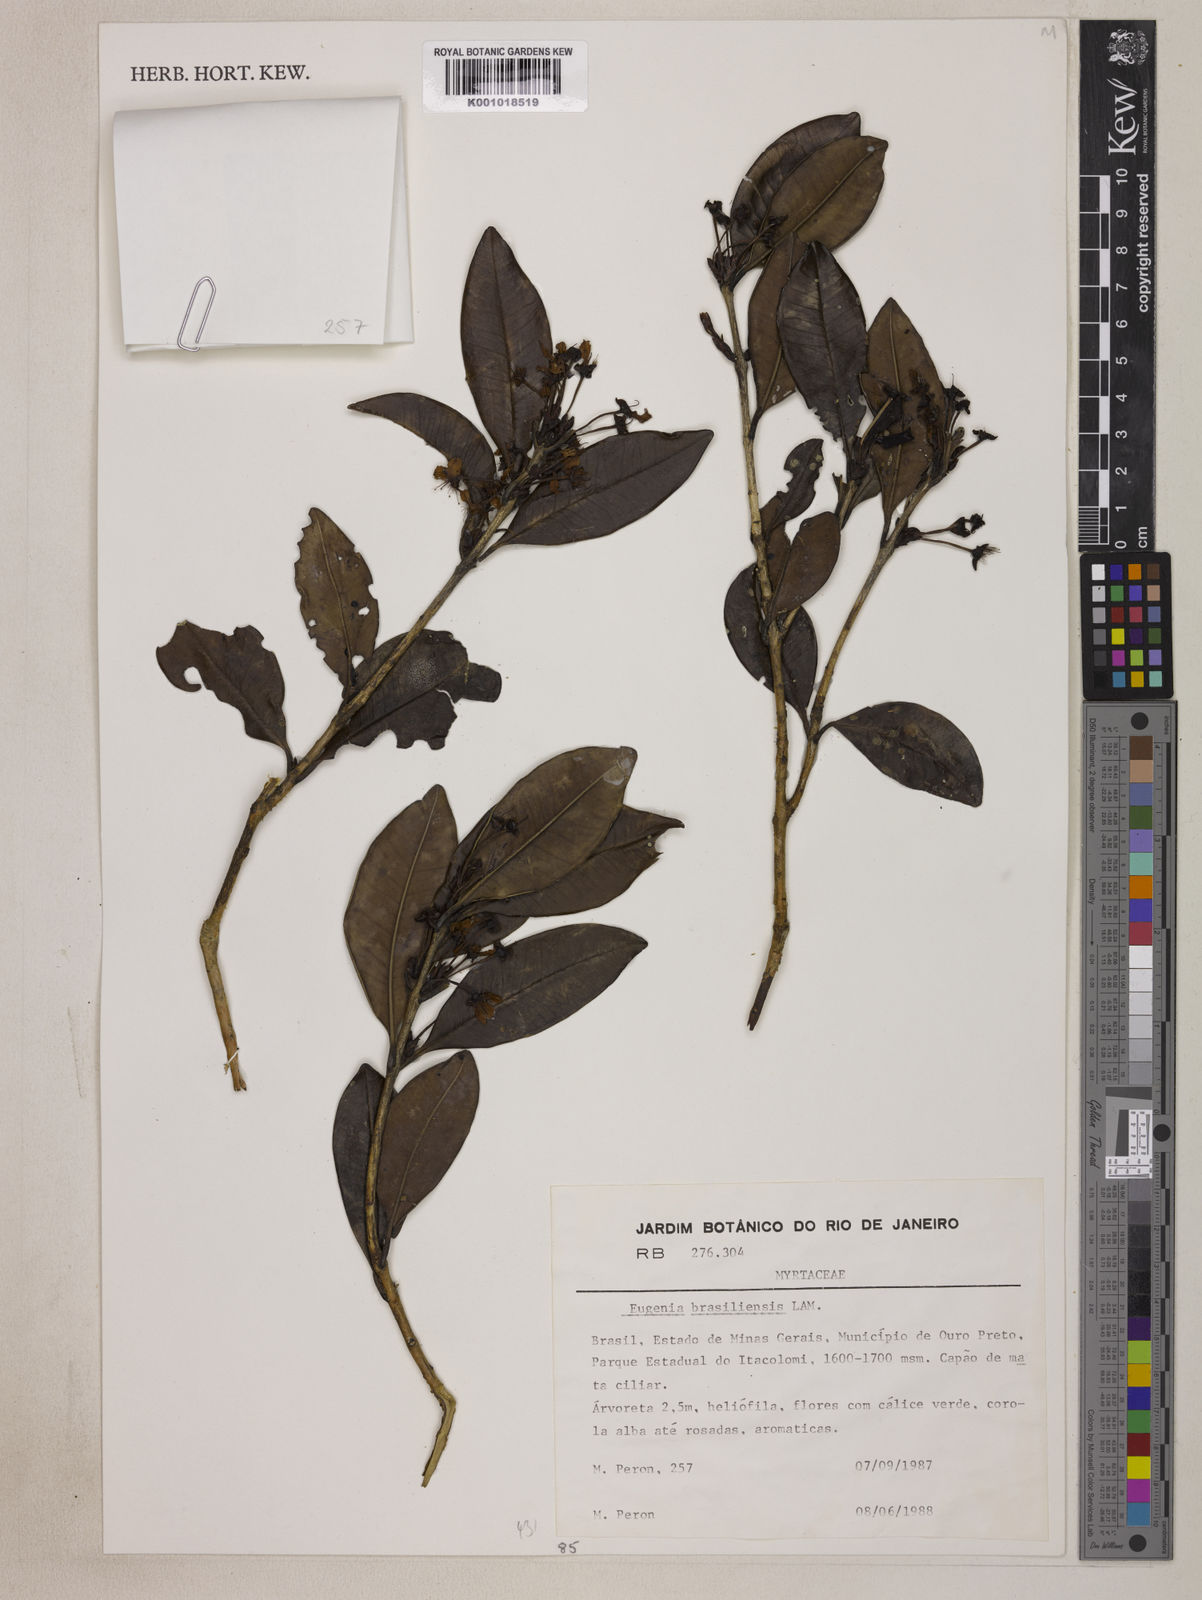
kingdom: Plantae
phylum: Tracheophyta
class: Magnoliopsida
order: Myrtales
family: Myrtaceae
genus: Eugenia
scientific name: Eugenia brasiliensis
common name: Grumichama
